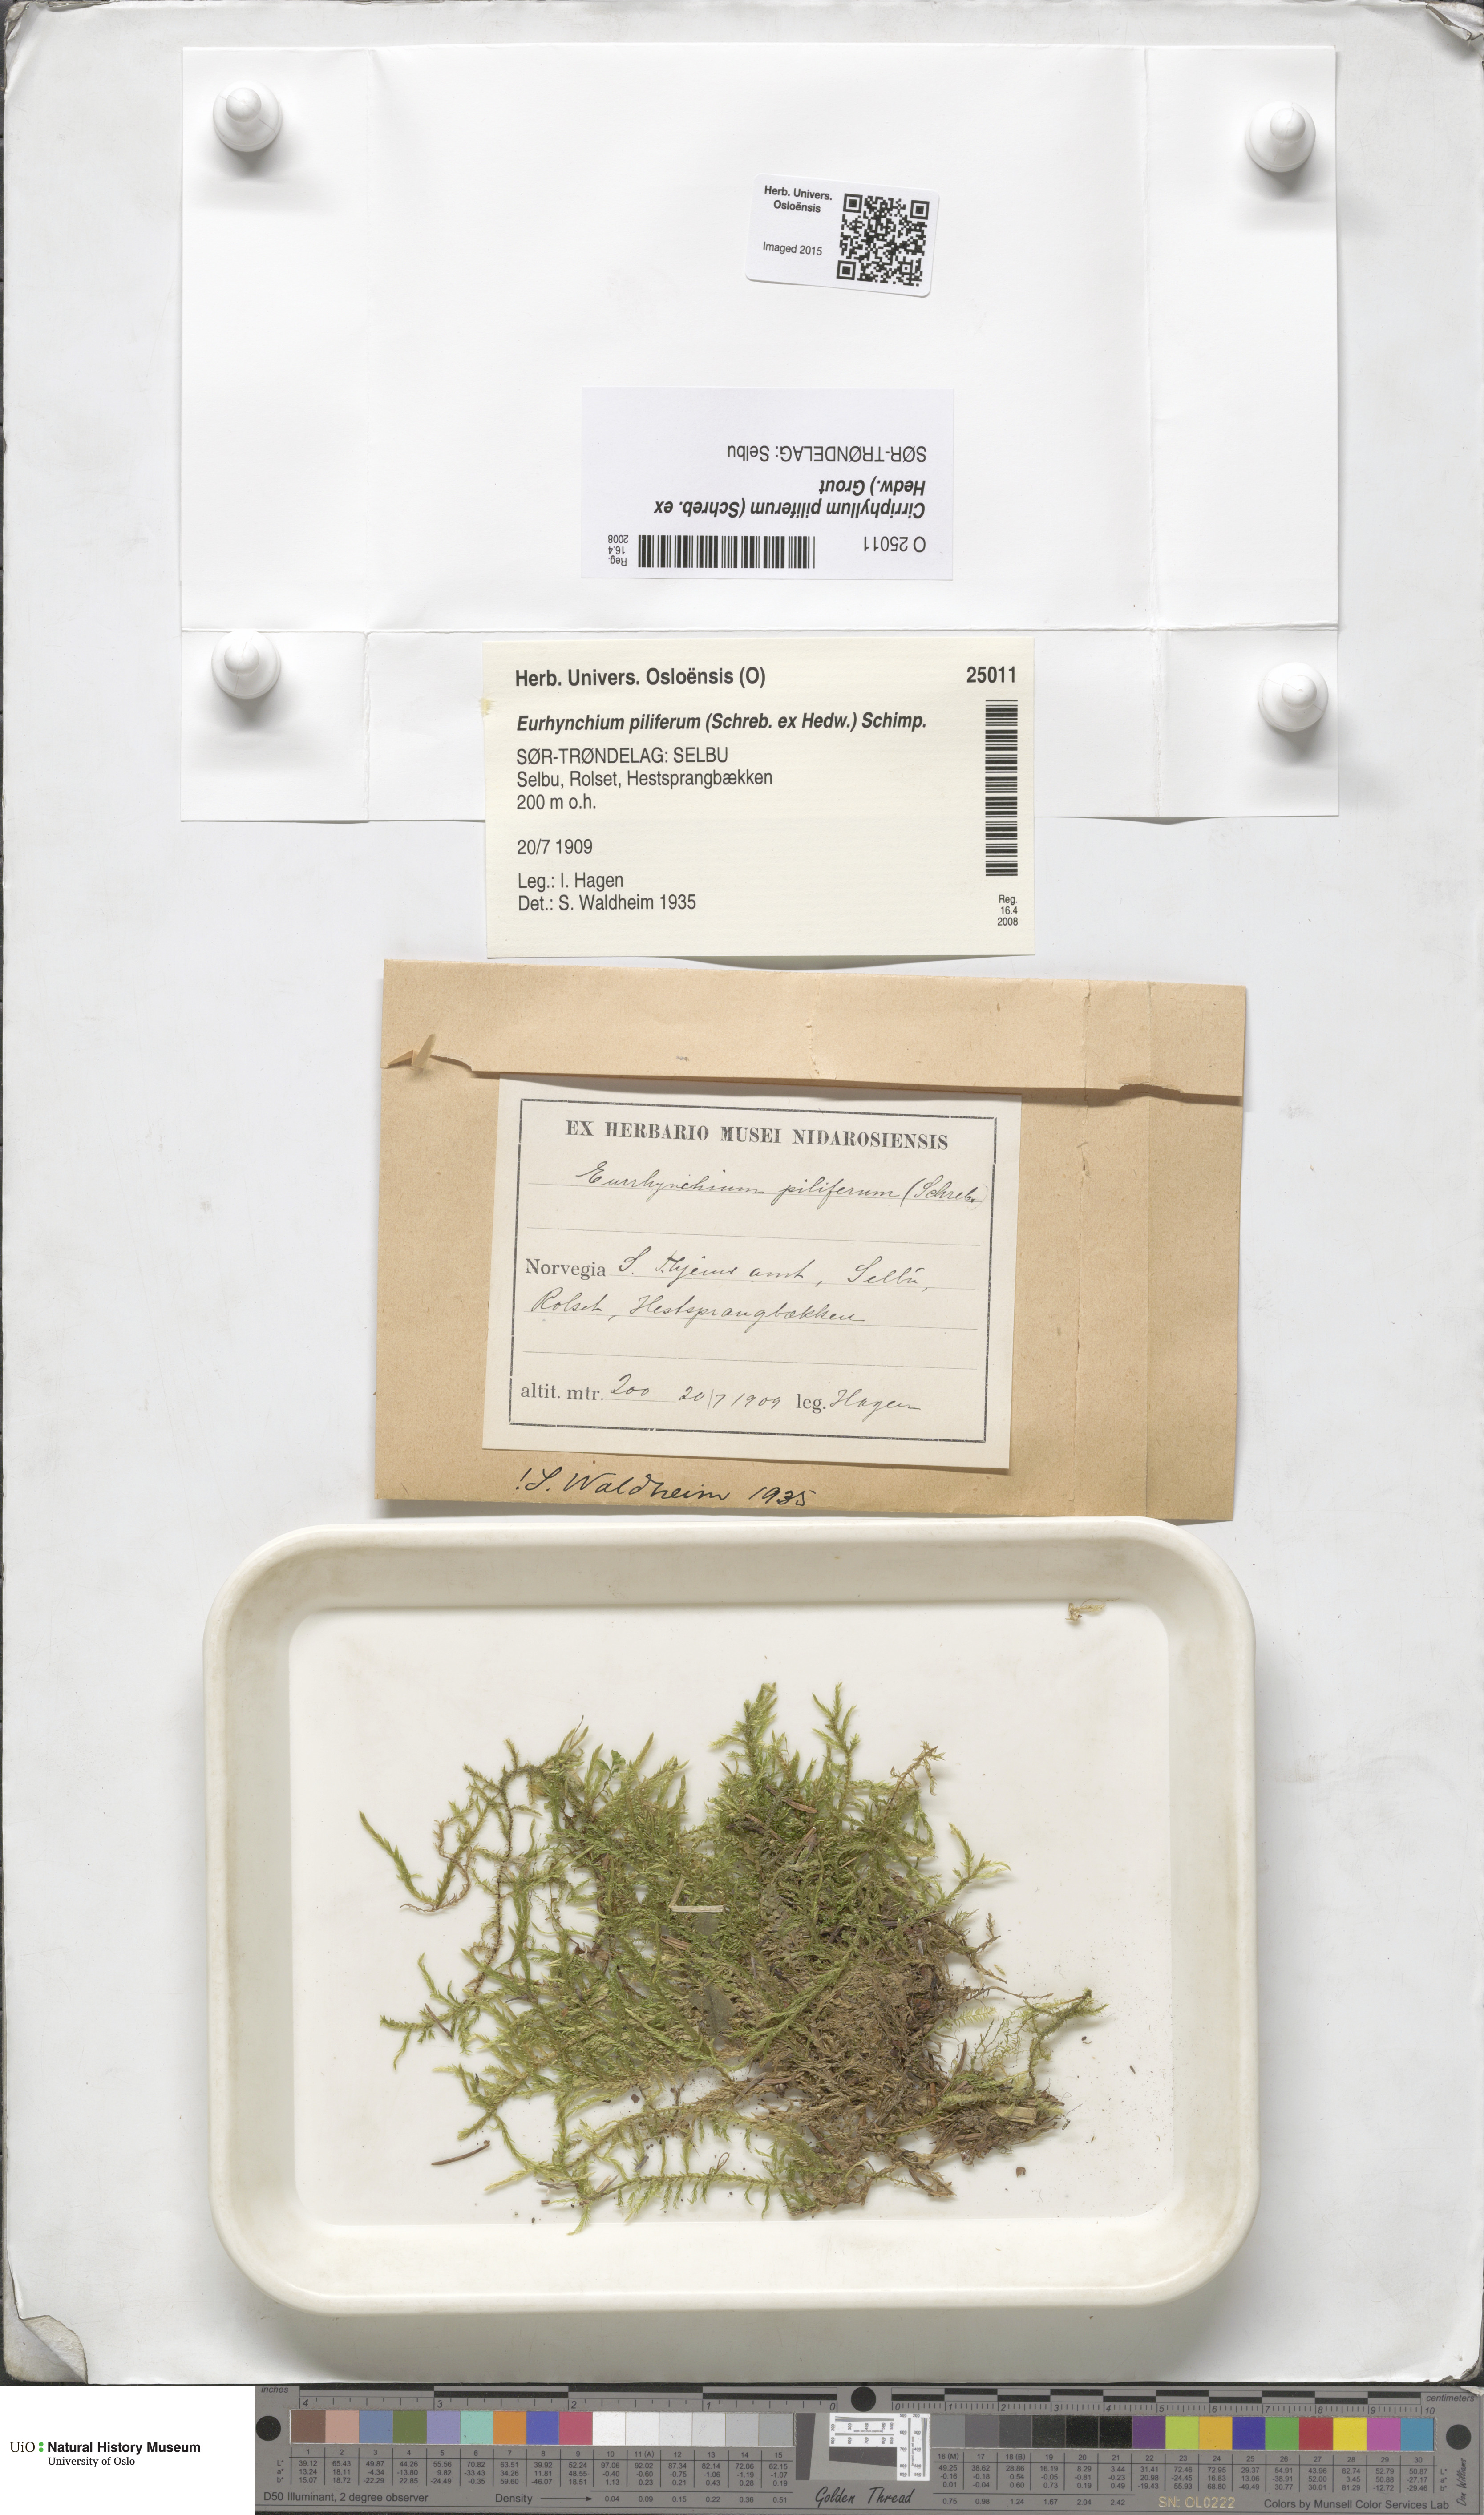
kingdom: Plantae
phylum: Bryophyta
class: Bryopsida
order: Hypnales
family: Brachytheciaceae
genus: Cirriphyllum
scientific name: Cirriphyllum piliferum
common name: Hair-pointed moss
